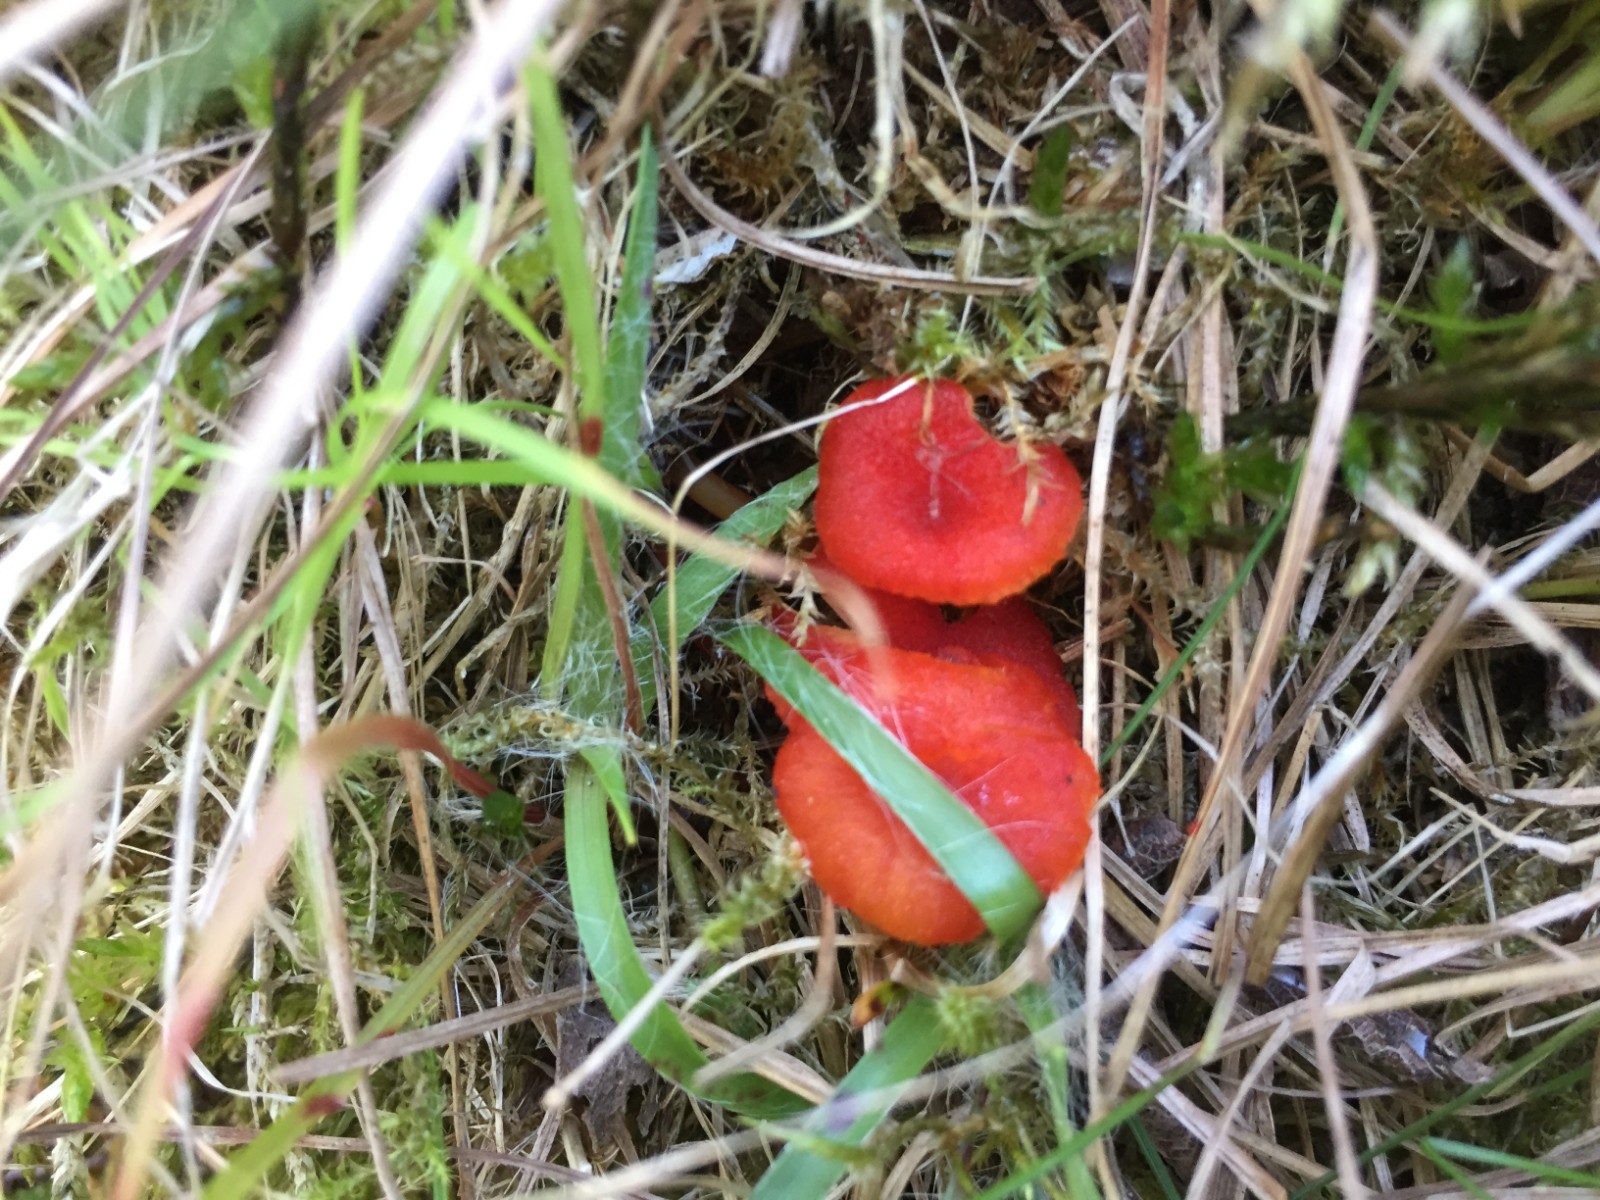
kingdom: Fungi
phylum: Basidiomycota
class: Agaricomycetes
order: Agaricales
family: Hygrophoraceae
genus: Hygrocybe
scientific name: Hygrocybe helobia
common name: hvidløgs-vokshat
